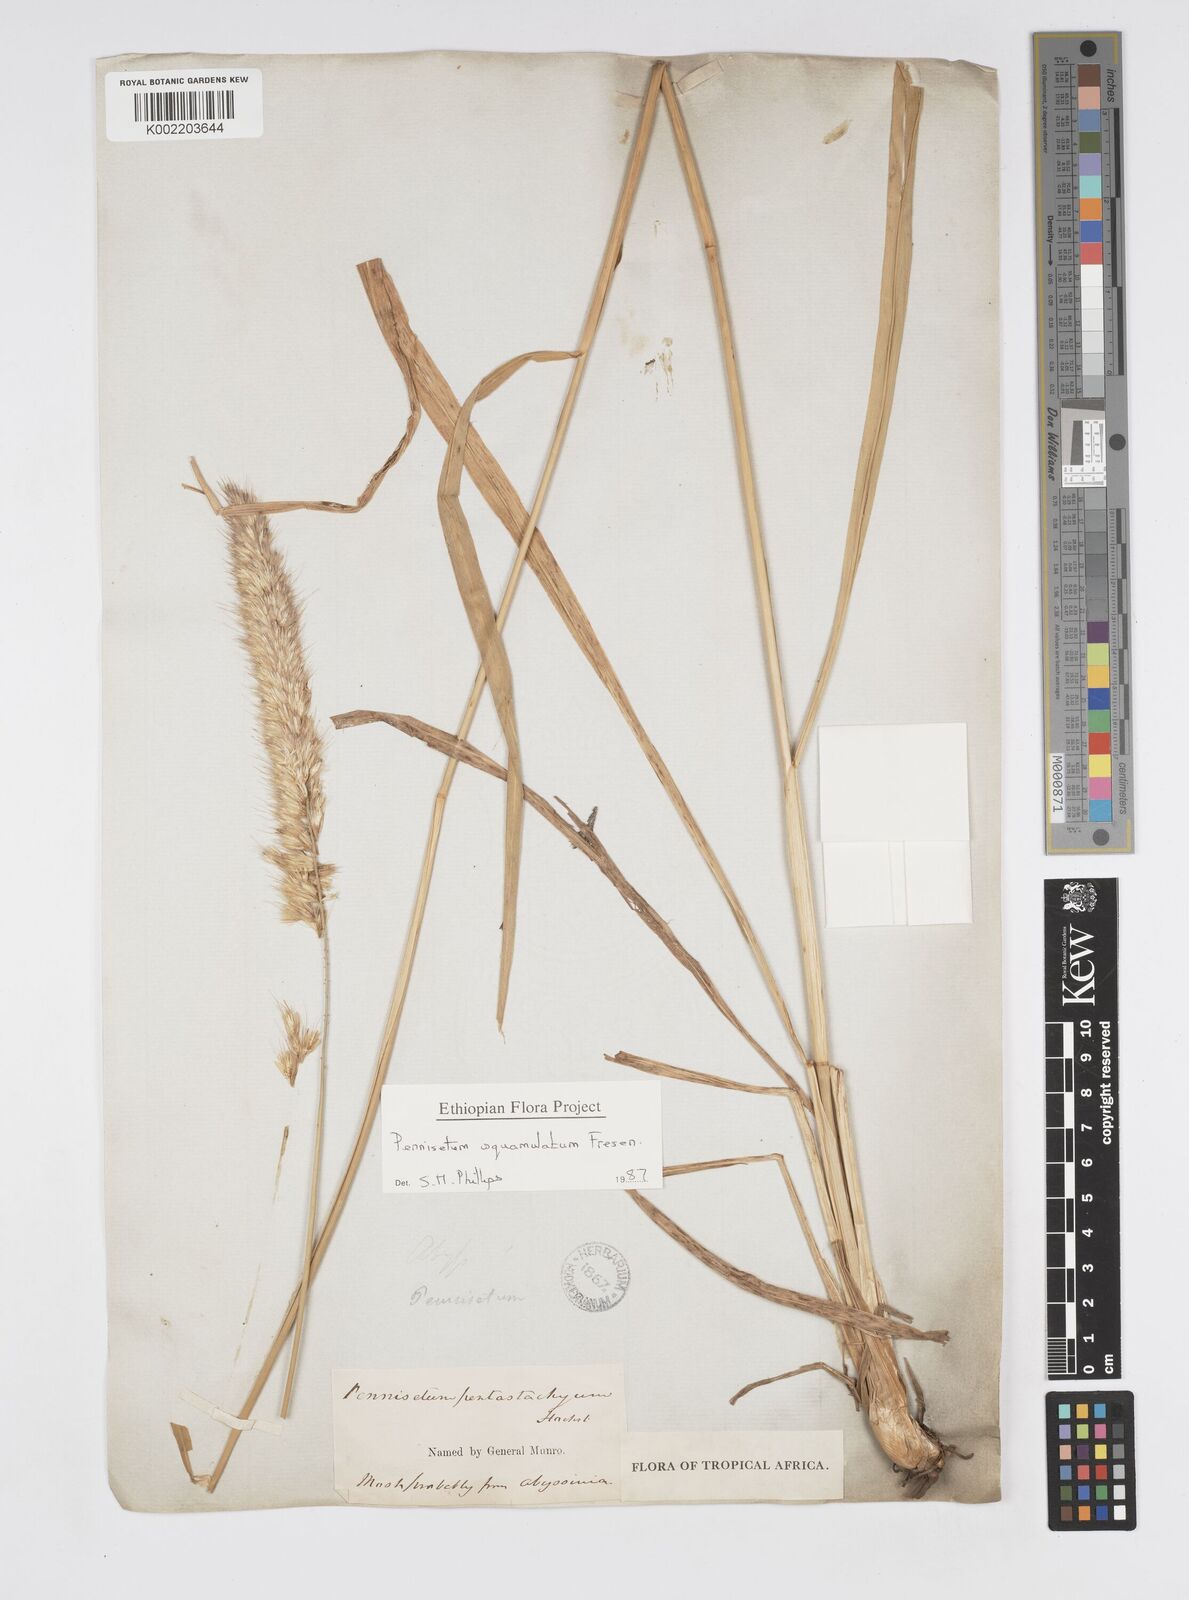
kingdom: Plantae
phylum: Tracheophyta
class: Liliopsida
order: Poales
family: Poaceae
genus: Cenchrus
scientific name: Cenchrus squamulatus
